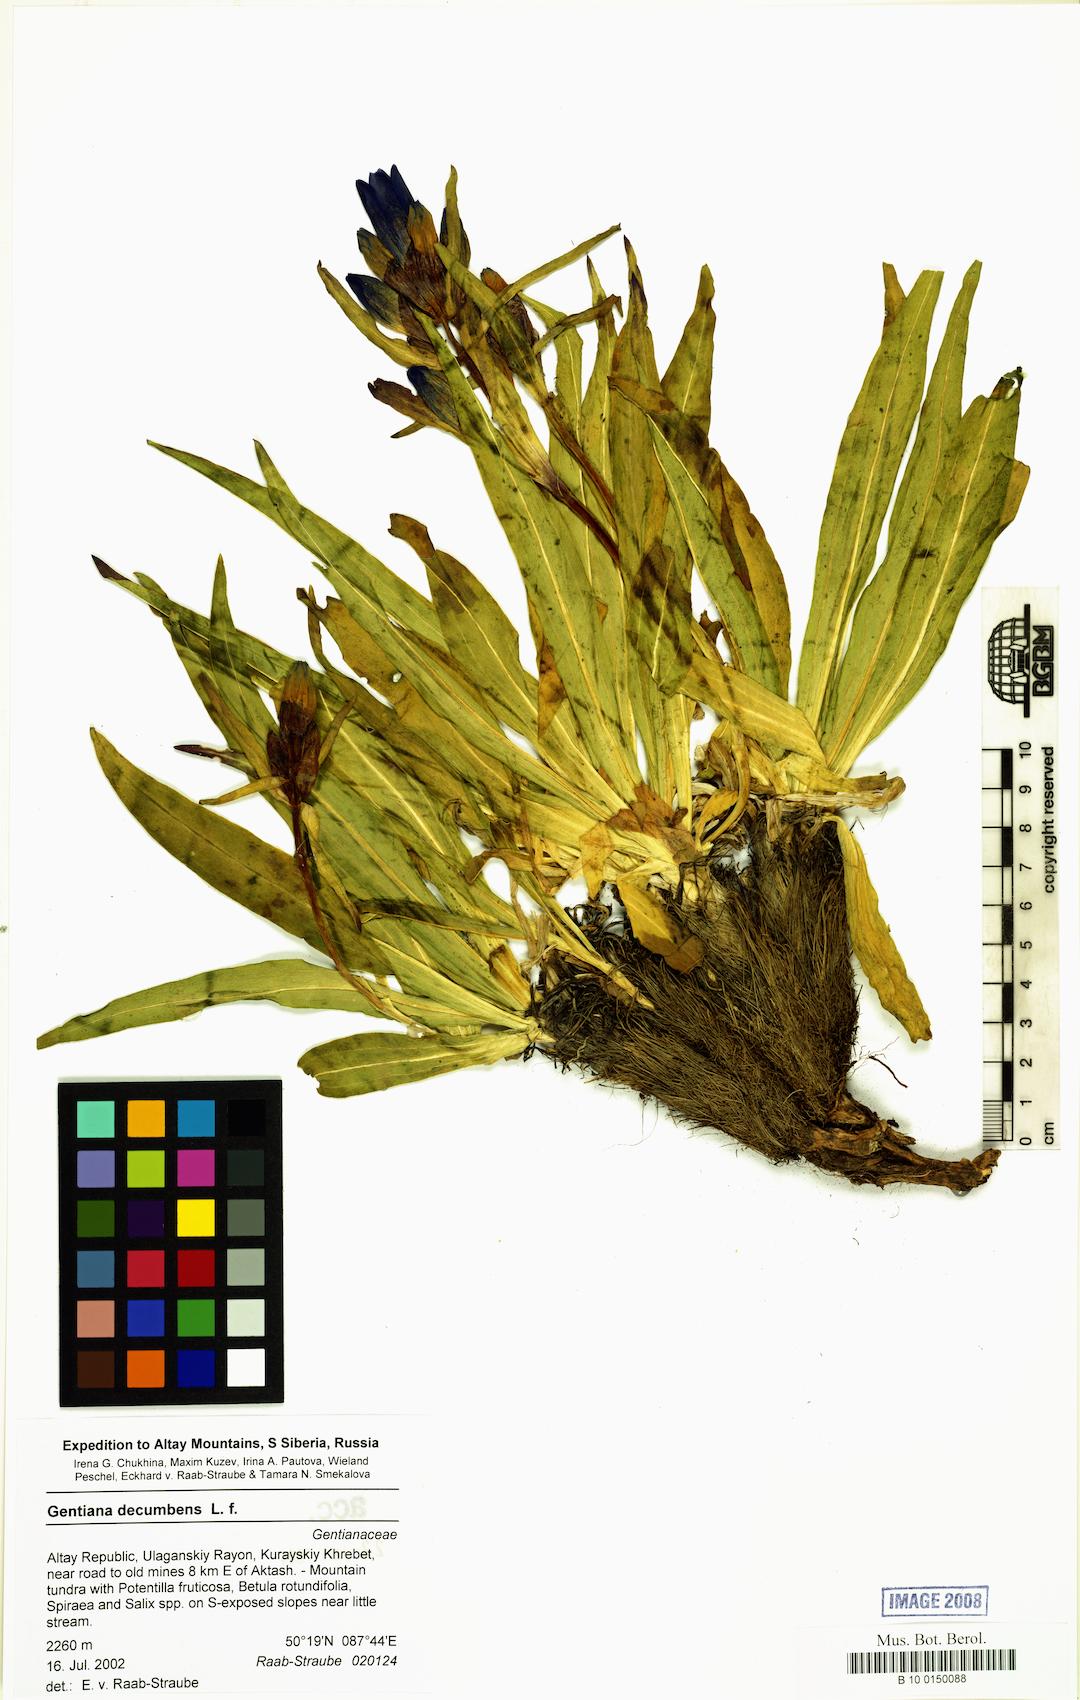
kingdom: Plantae
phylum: Tracheophyta
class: Magnoliopsida
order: Gentianales
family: Gentianaceae
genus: Gentiana
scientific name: Gentiana decumbens
